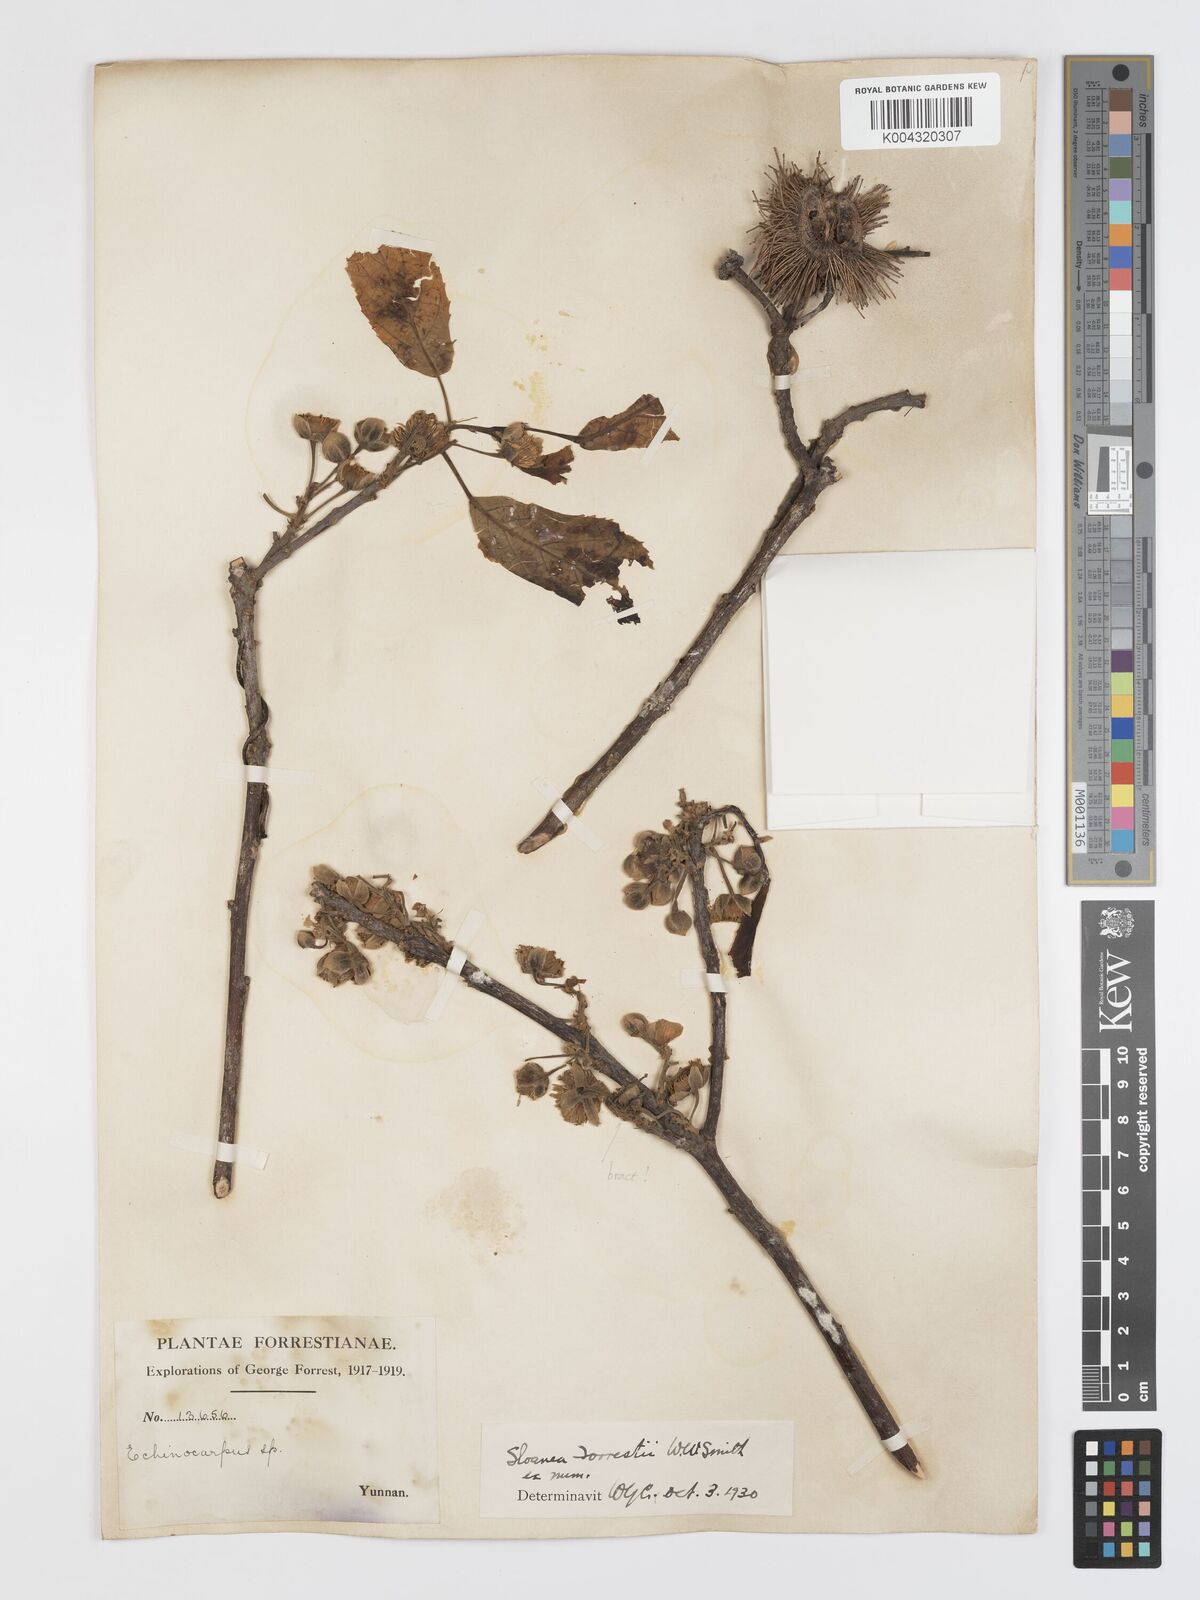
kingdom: Plantae
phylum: Tracheophyta
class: Magnoliopsida
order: Oxalidales
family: Elaeocarpaceae
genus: Sloanea
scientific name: Sloanea sterculiacea
